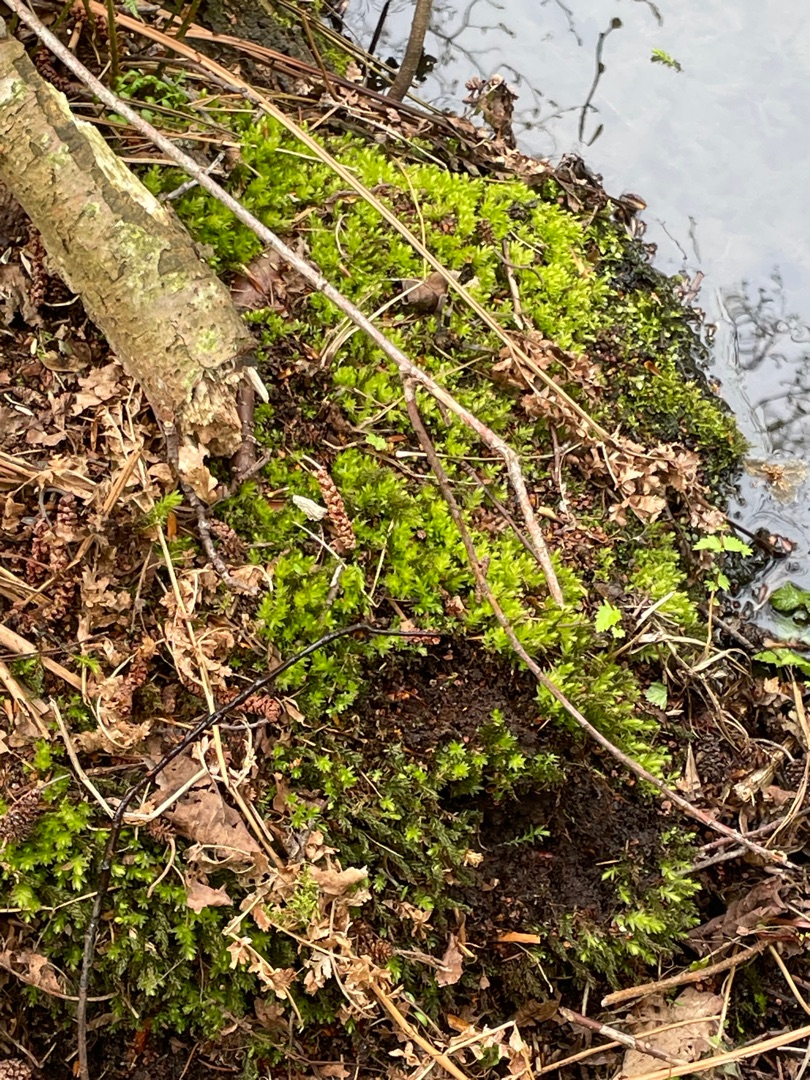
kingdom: Plantae
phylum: Bryophyta
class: Bryopsida
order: Bryales
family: Mniaceae
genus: Mnium
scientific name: Mnium hornum
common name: Brunfiltet stjernemos
